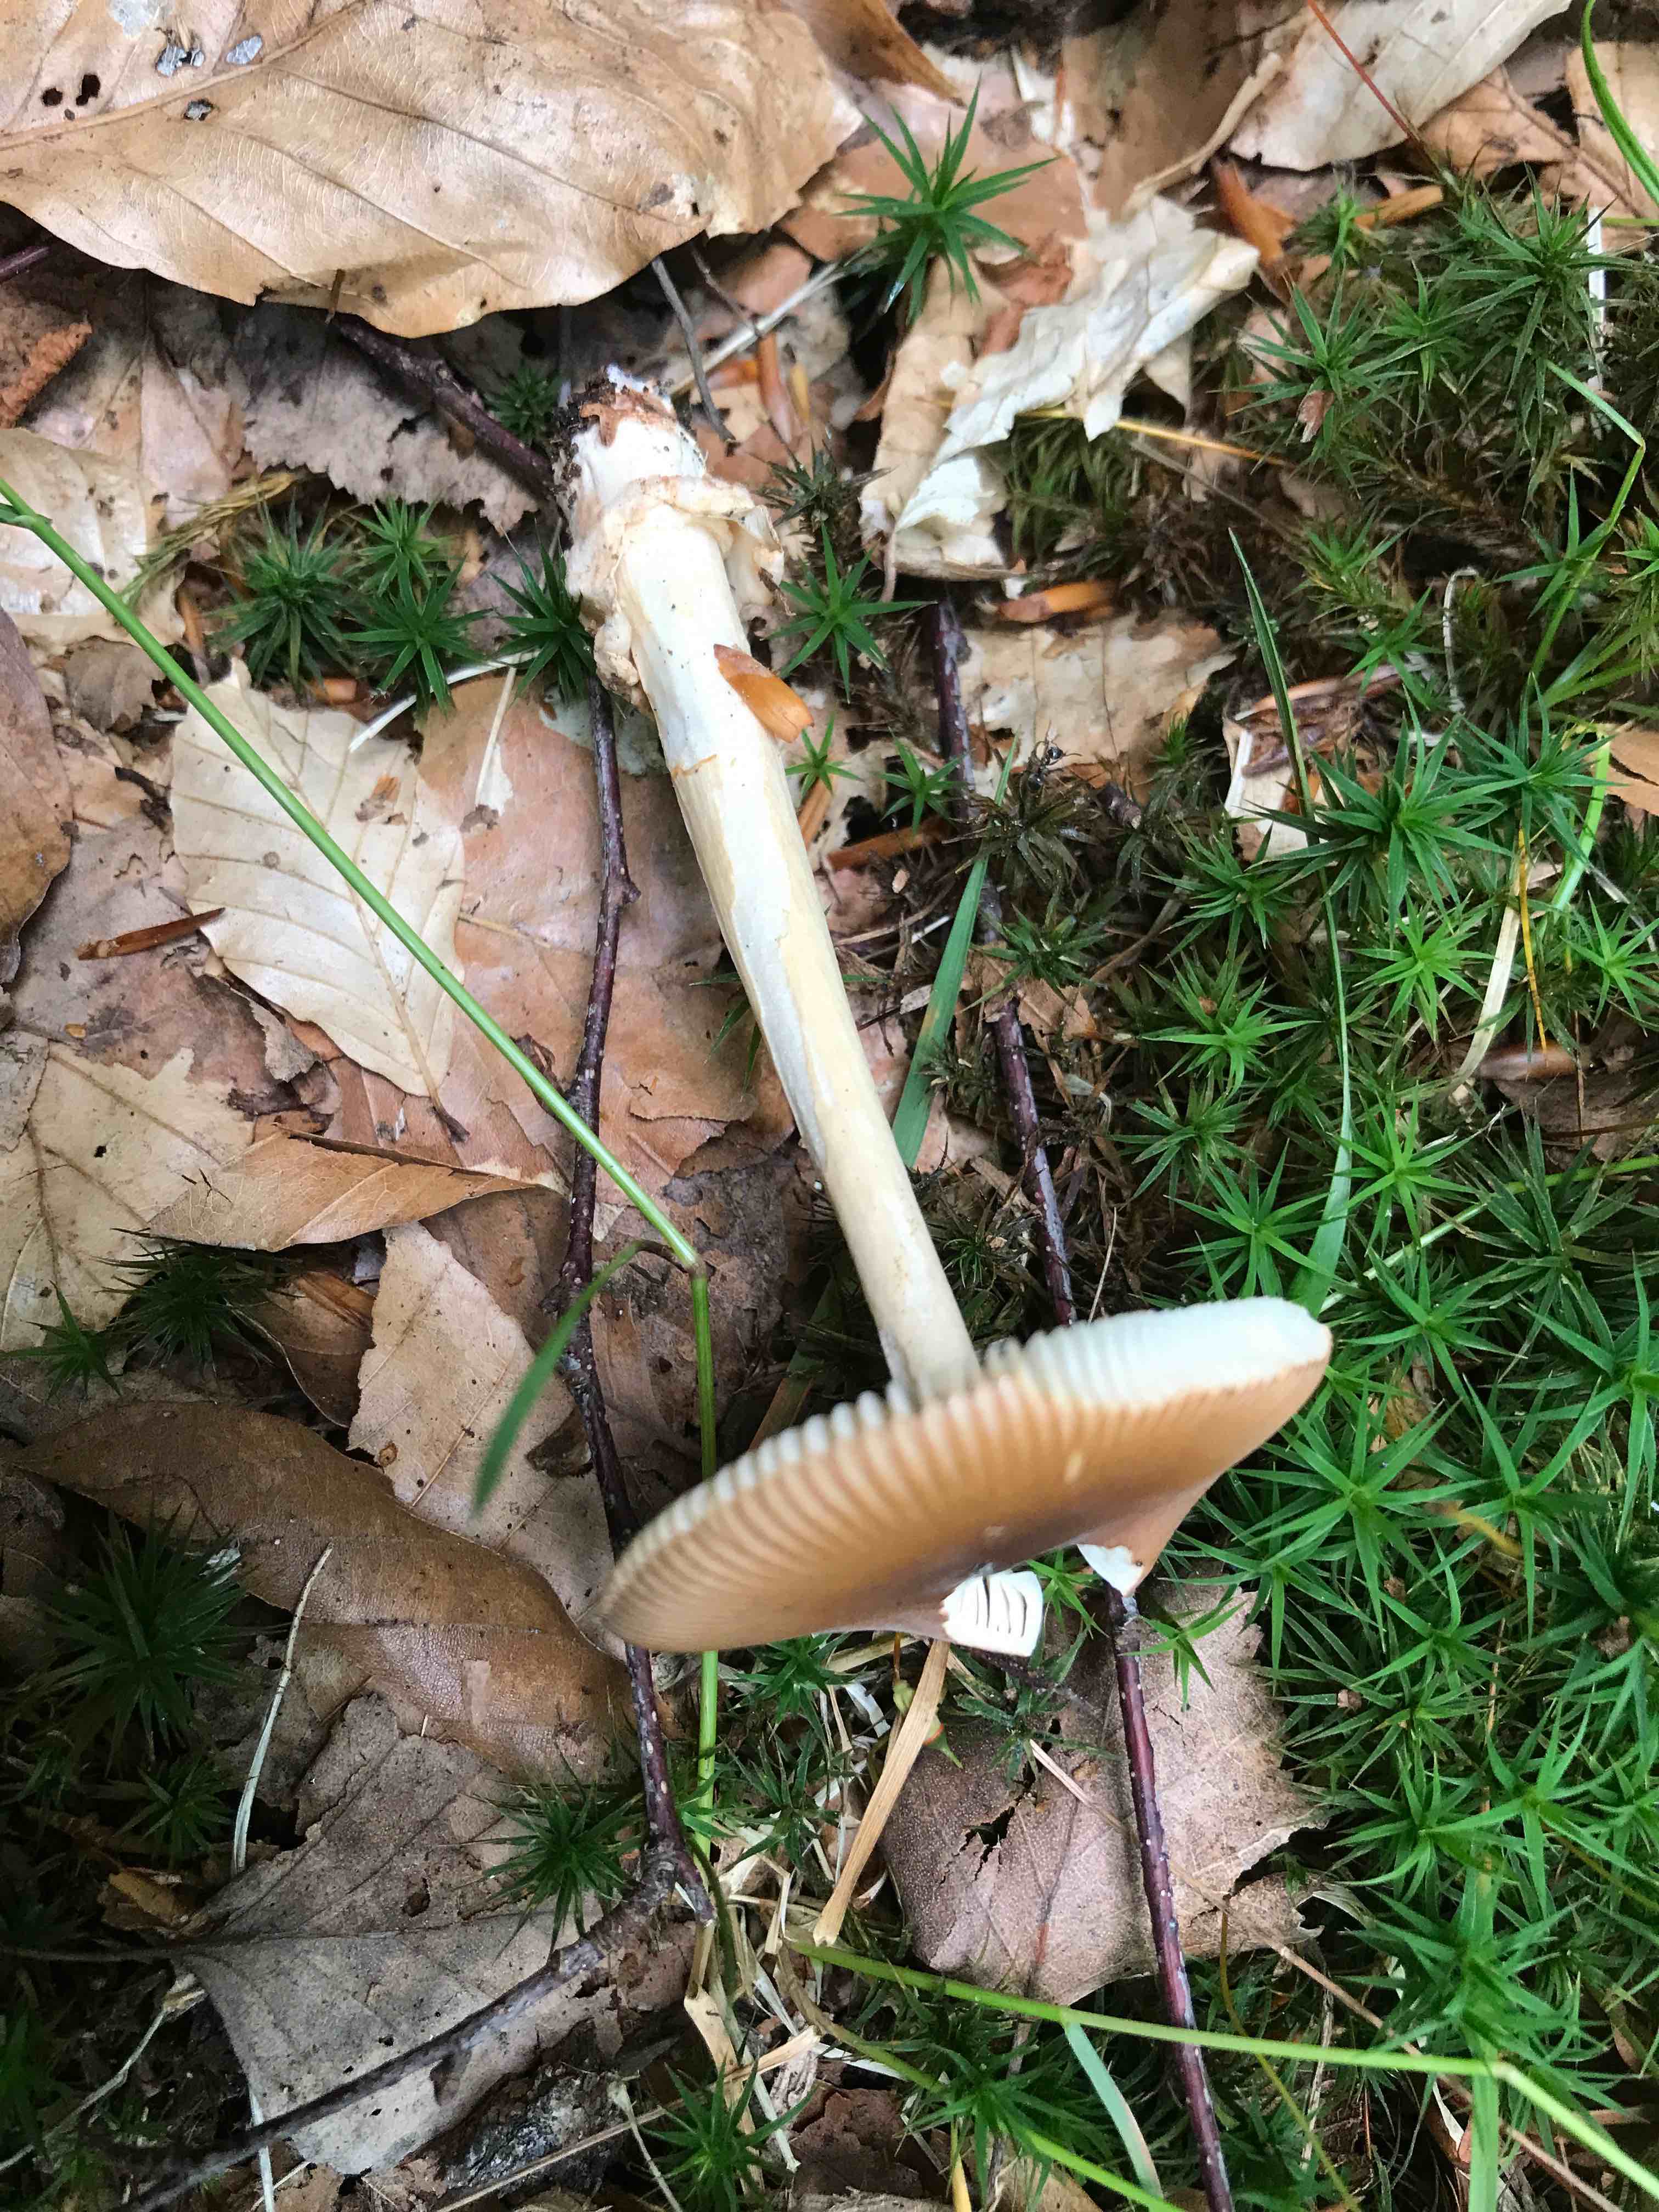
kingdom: Fungi
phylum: Basidiomycota
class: Agaricomycetes
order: Agaricales
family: Amanitaceae
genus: Amanita
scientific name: Amanita fulva
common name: brun kam-fluesvamp
